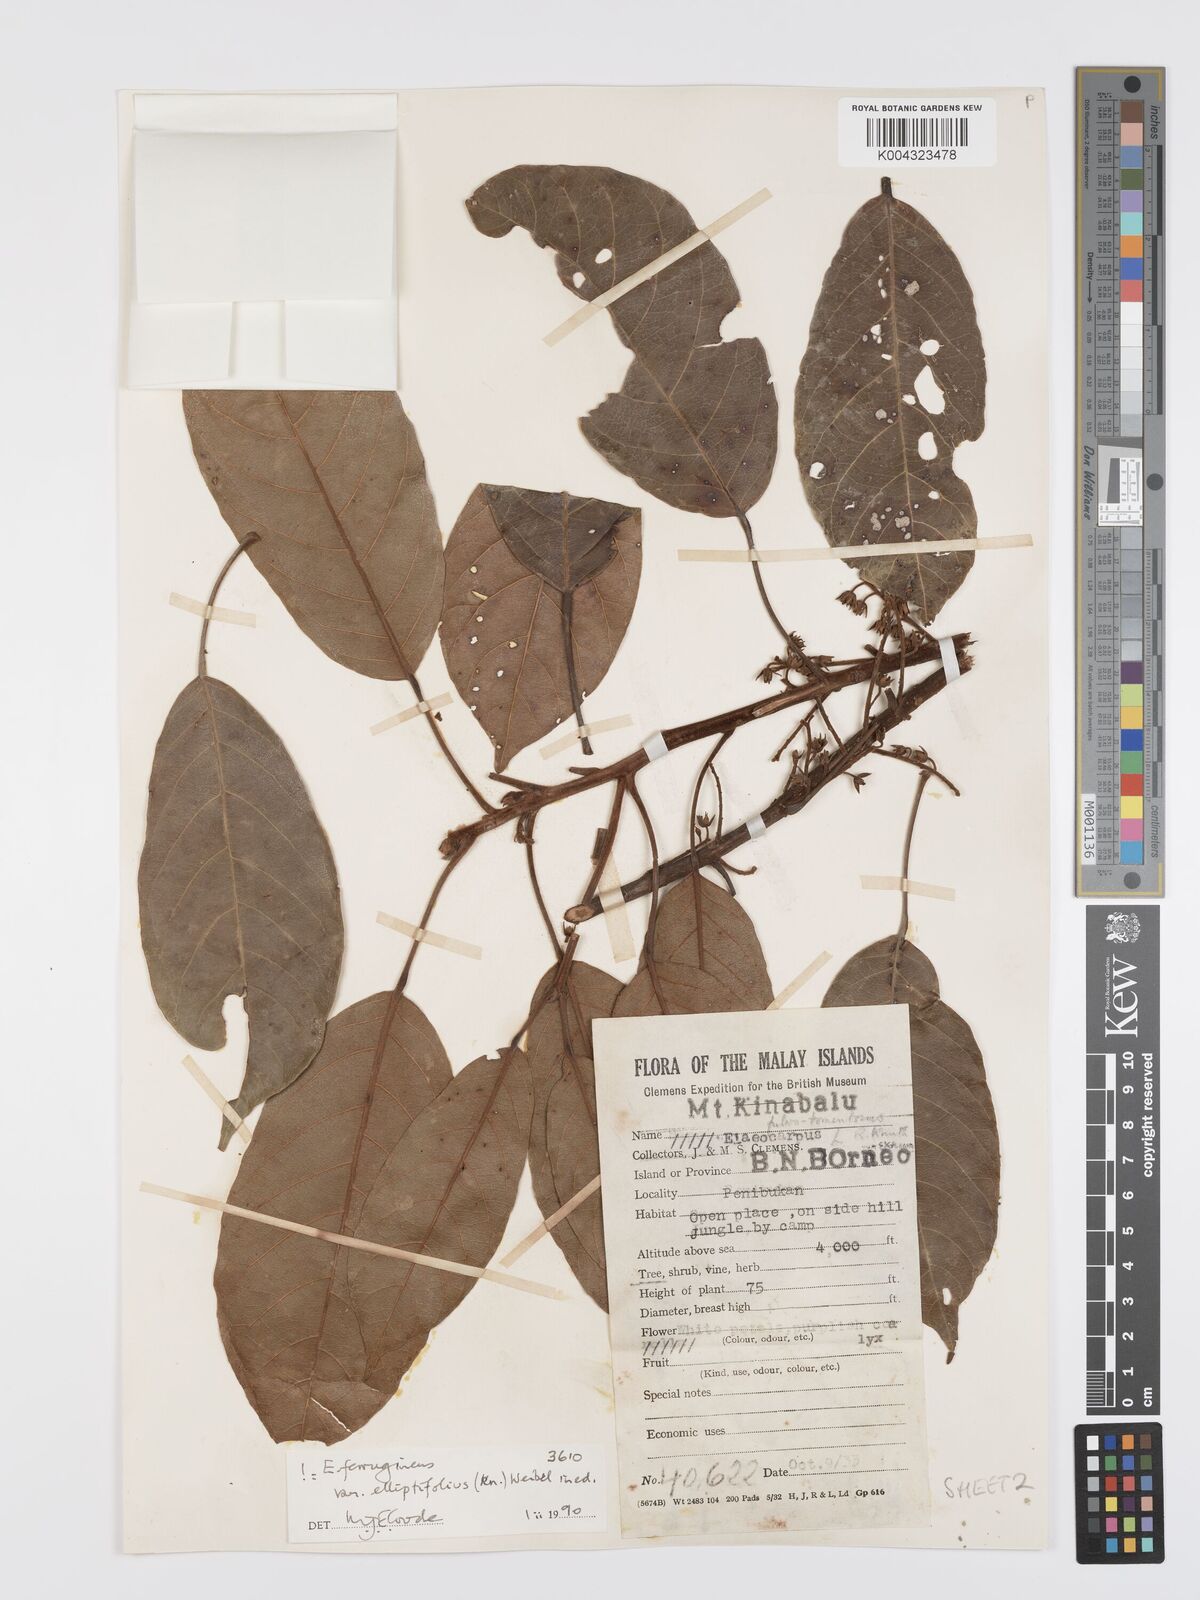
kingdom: Plantae
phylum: Tracheophyta
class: Magnoliopsida
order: Oxalidales
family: Elaeocarpaceae
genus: Elaeocarpus
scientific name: Elaeocarpus ferrugineus
